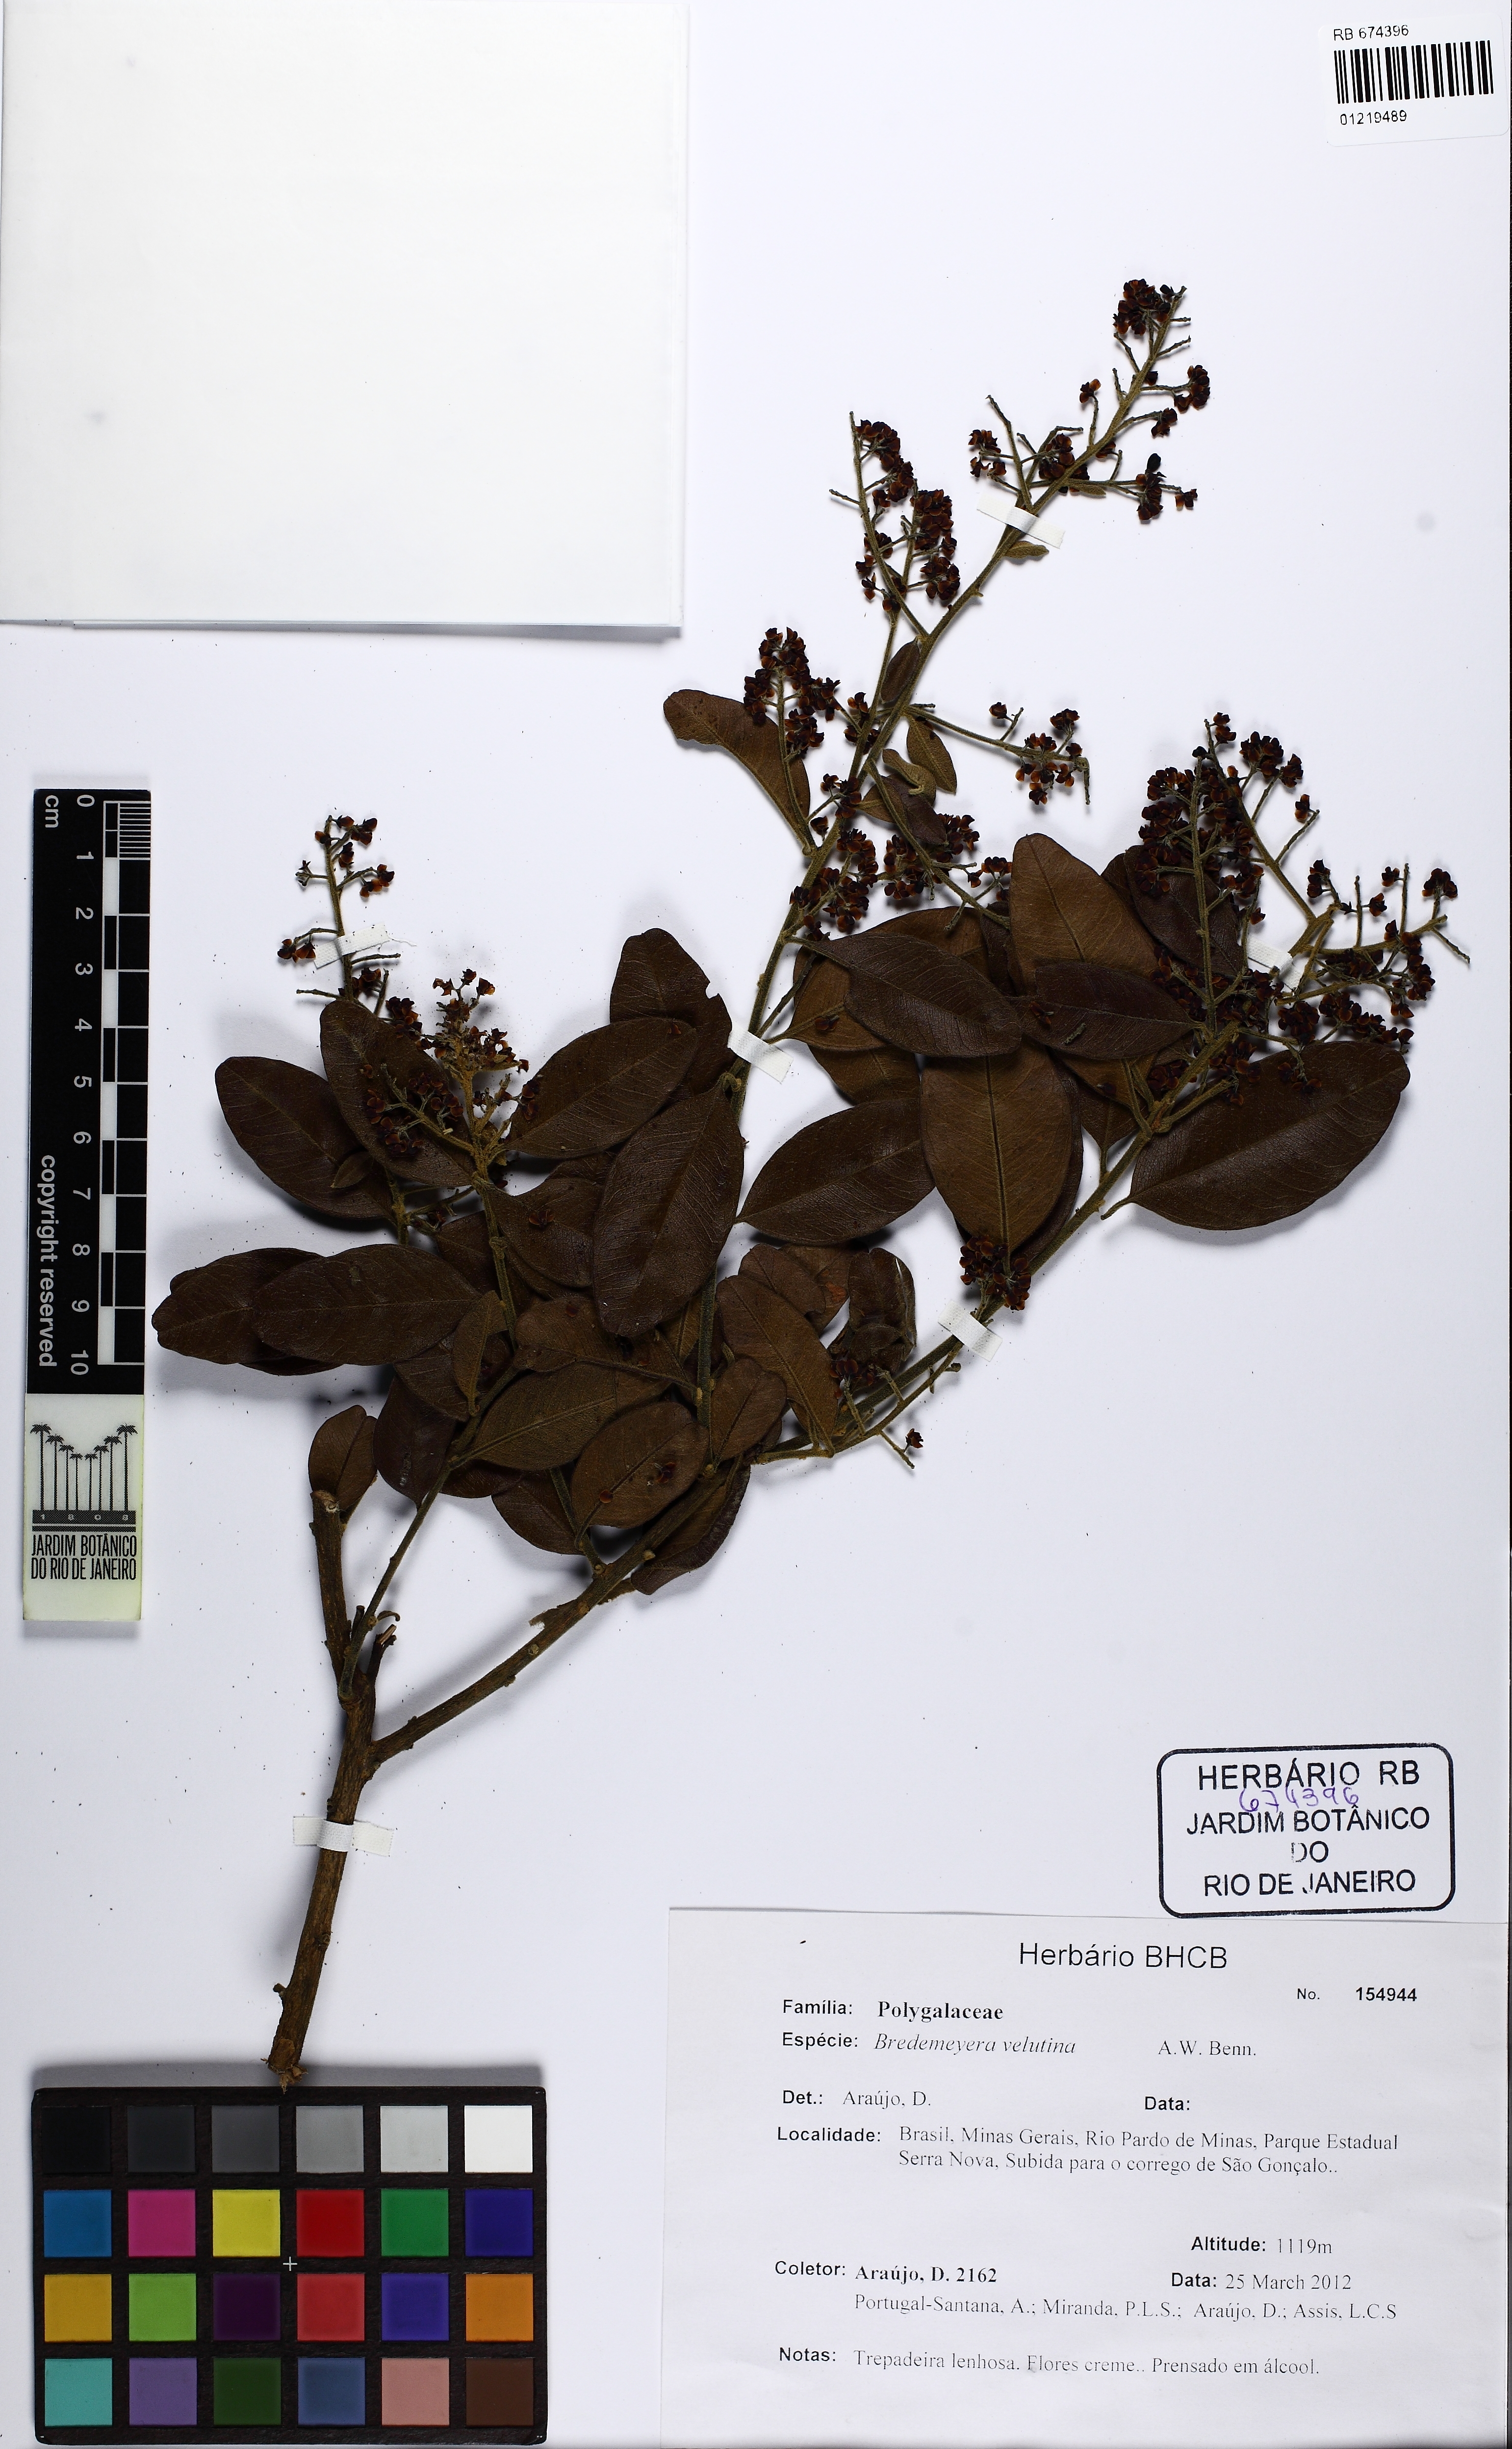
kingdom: Plantae
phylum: Tracheophyta
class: Magnoliopsida
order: Fabales
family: Polygalaceae
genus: Bredemeyera
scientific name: Bredemeyera hebeclada
